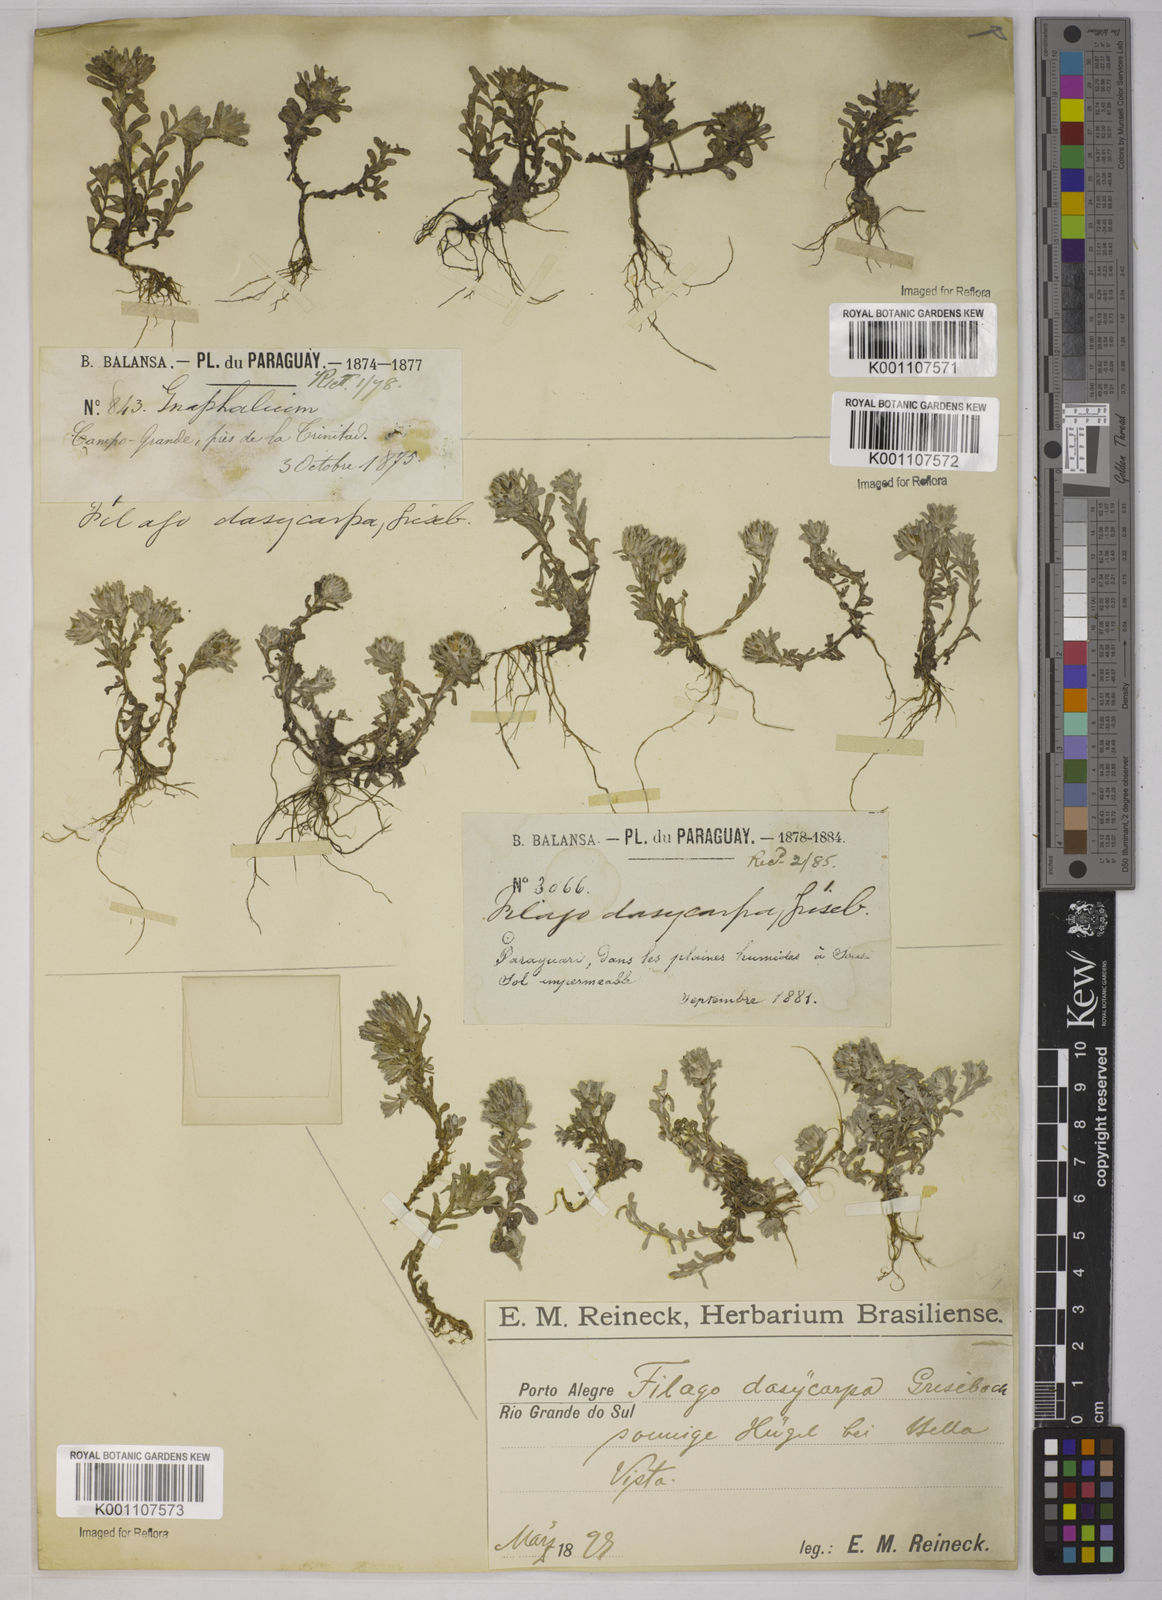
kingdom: Plantae
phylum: Tracheophyta
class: Magnoliopsida
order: Asterales
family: Asteraceae
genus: Micropsis
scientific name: Micropsis dasycarpa
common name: Bighead straitjackets
